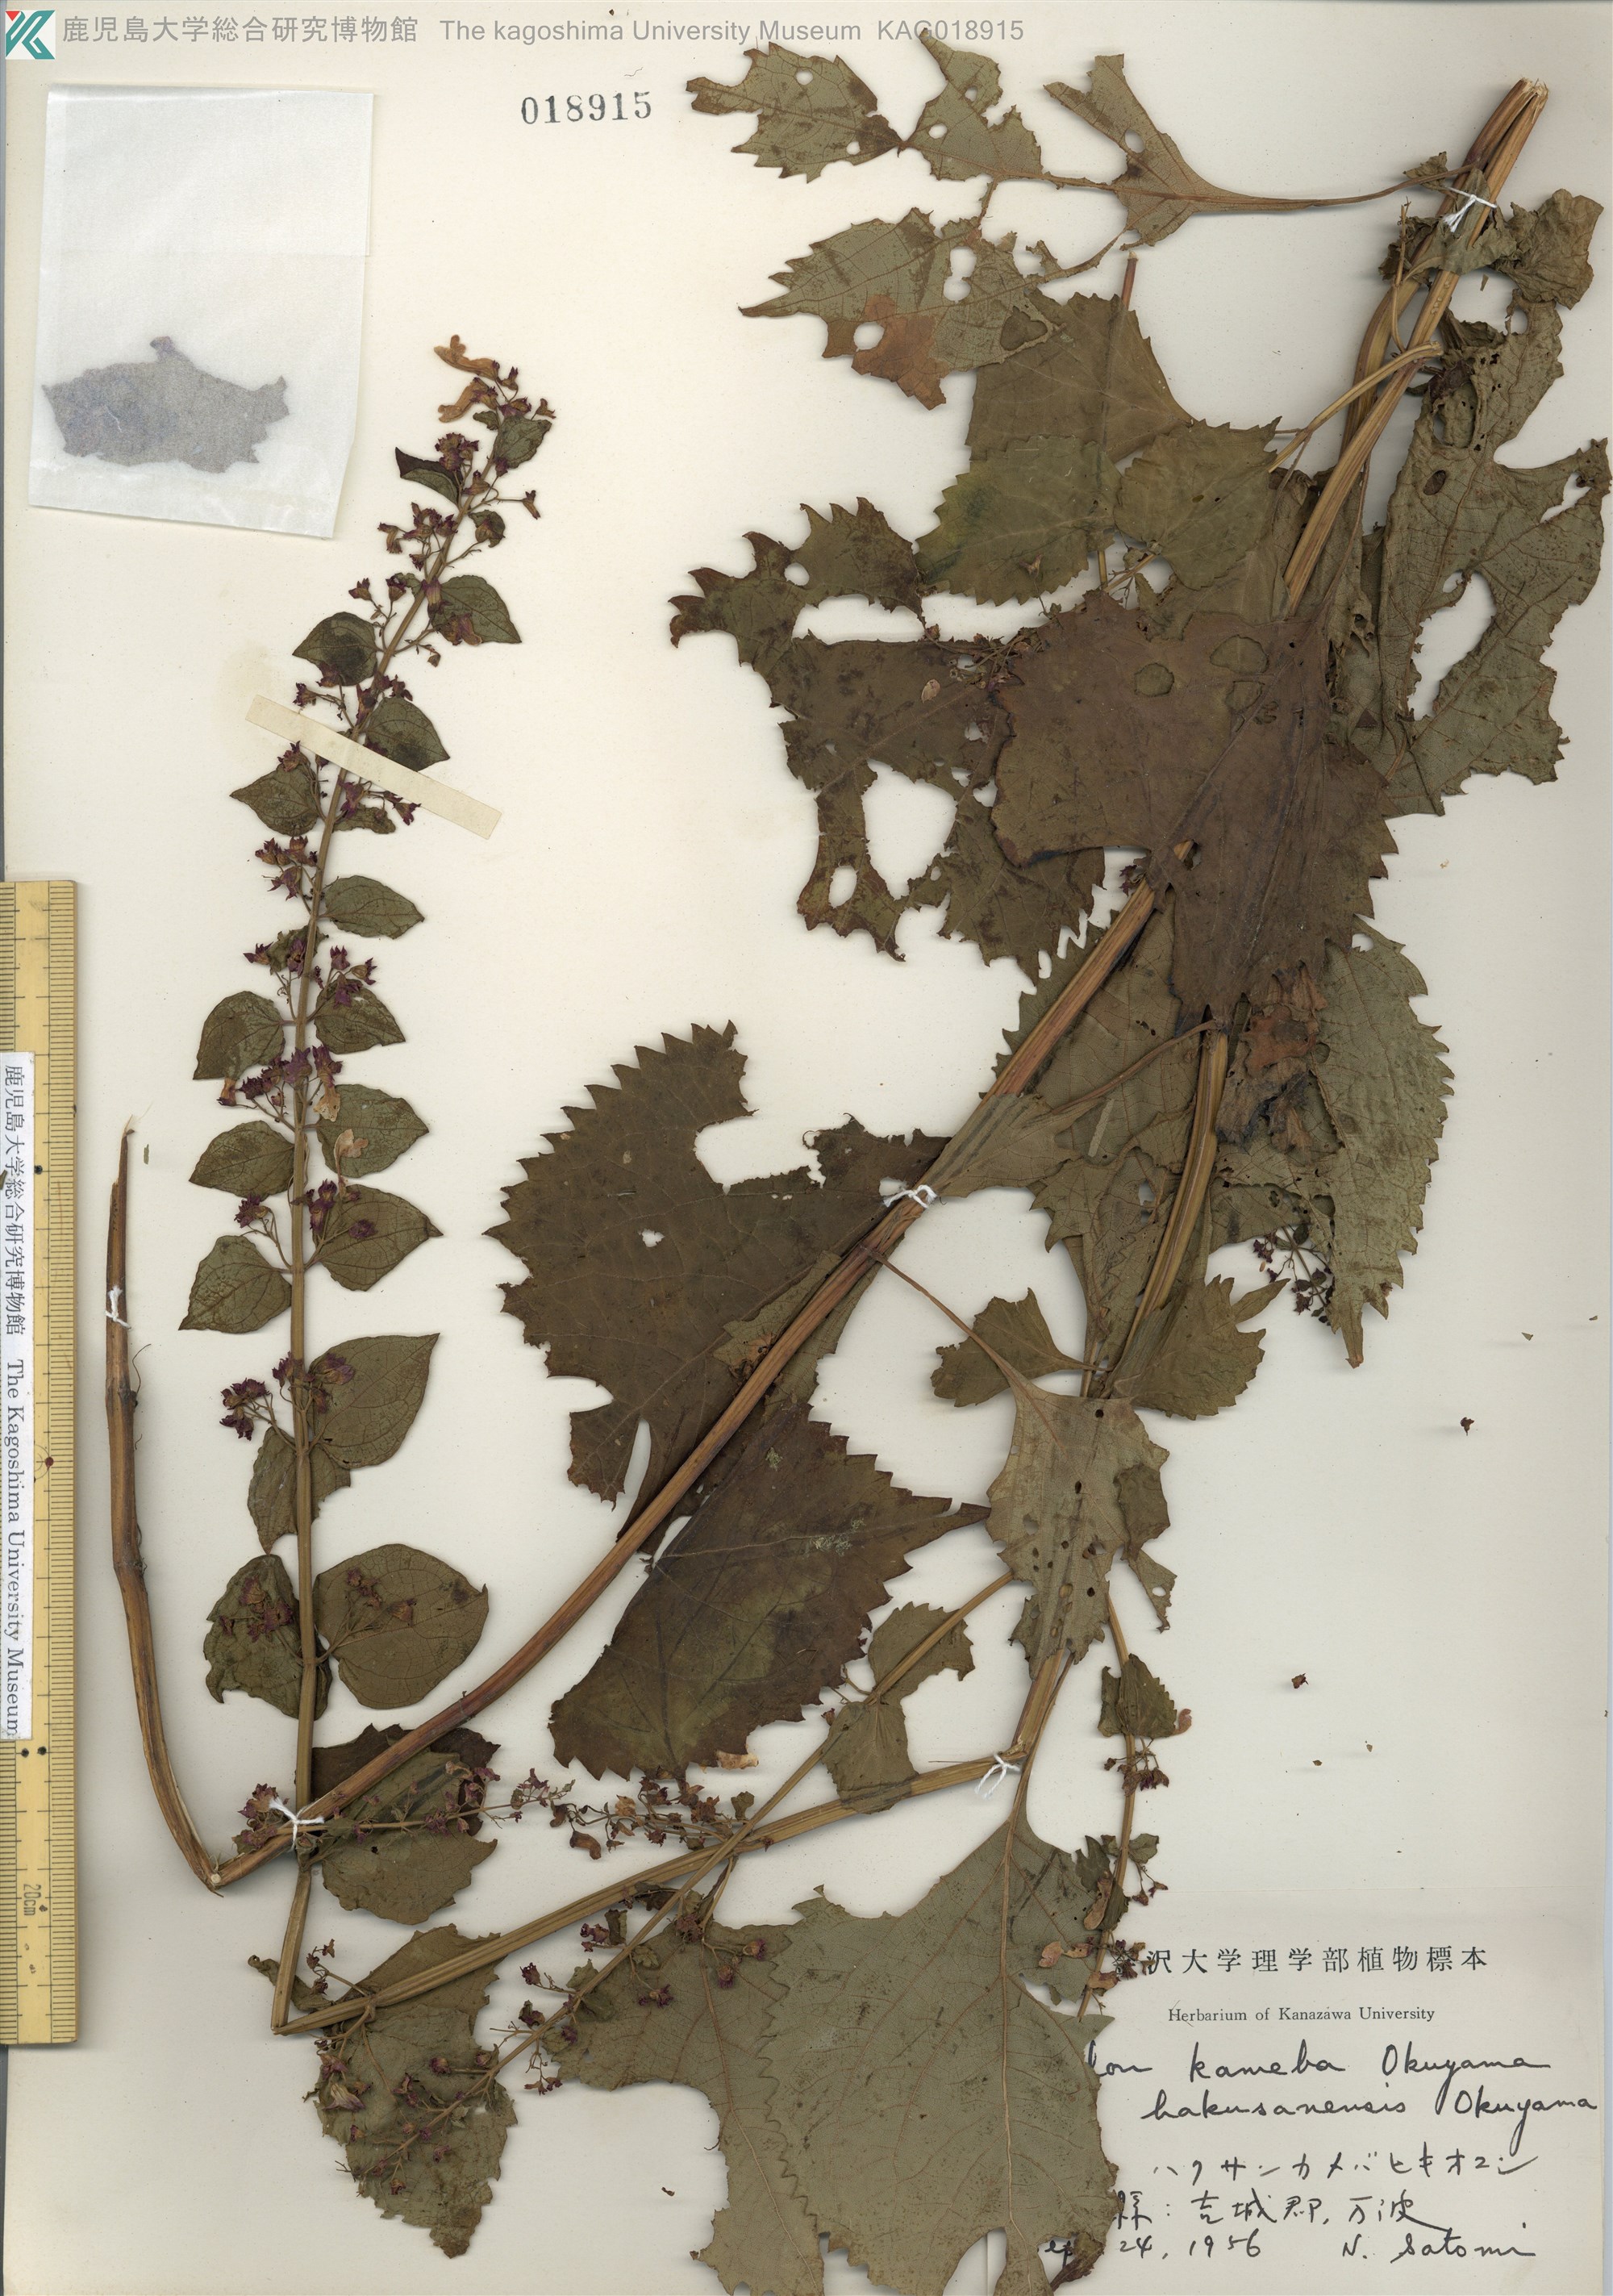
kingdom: Plantae
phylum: Tracheophyta
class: Magnoliopsida
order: Lamiales
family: Lamiaceae
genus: Isodon
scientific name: Isodon umbrosus
